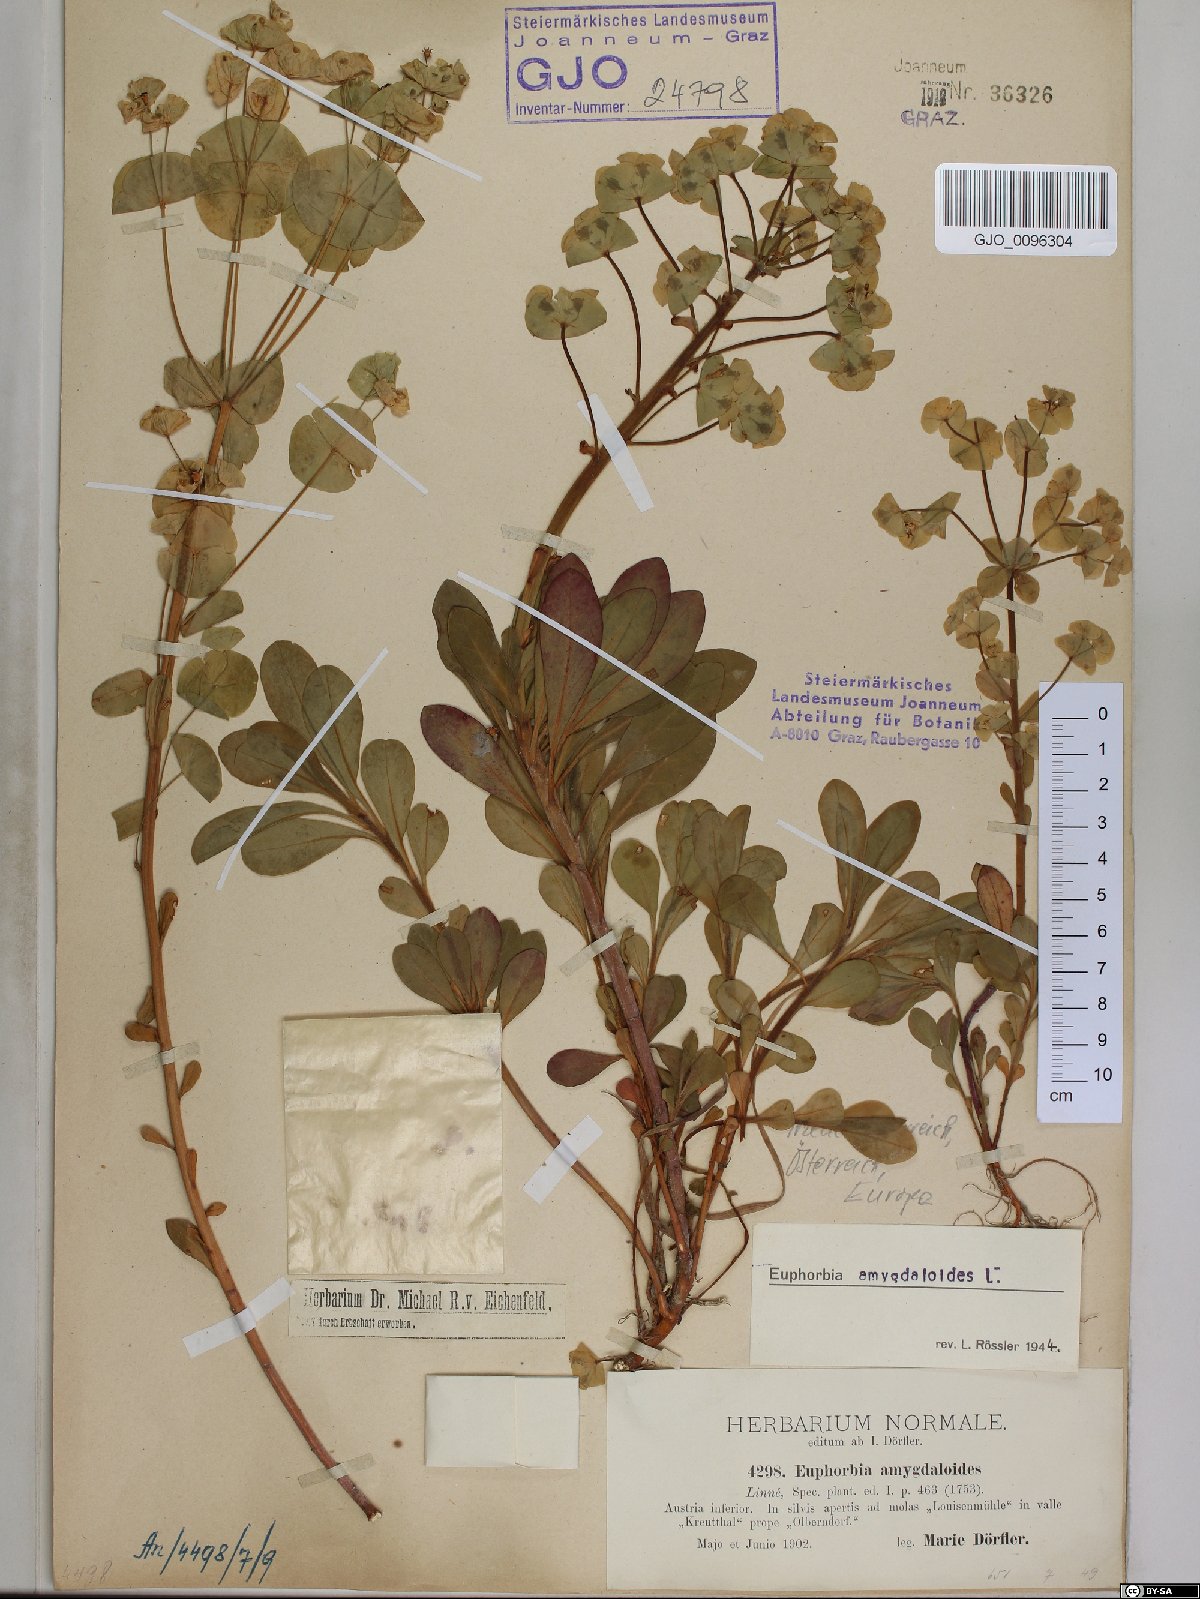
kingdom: Plantae
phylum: Tracheophyta
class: Magnoliopsida
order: Malpighiales
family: Euphorbiaceae
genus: Euphorbia
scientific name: Euphorbia amygdaloides
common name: Wood spurge
